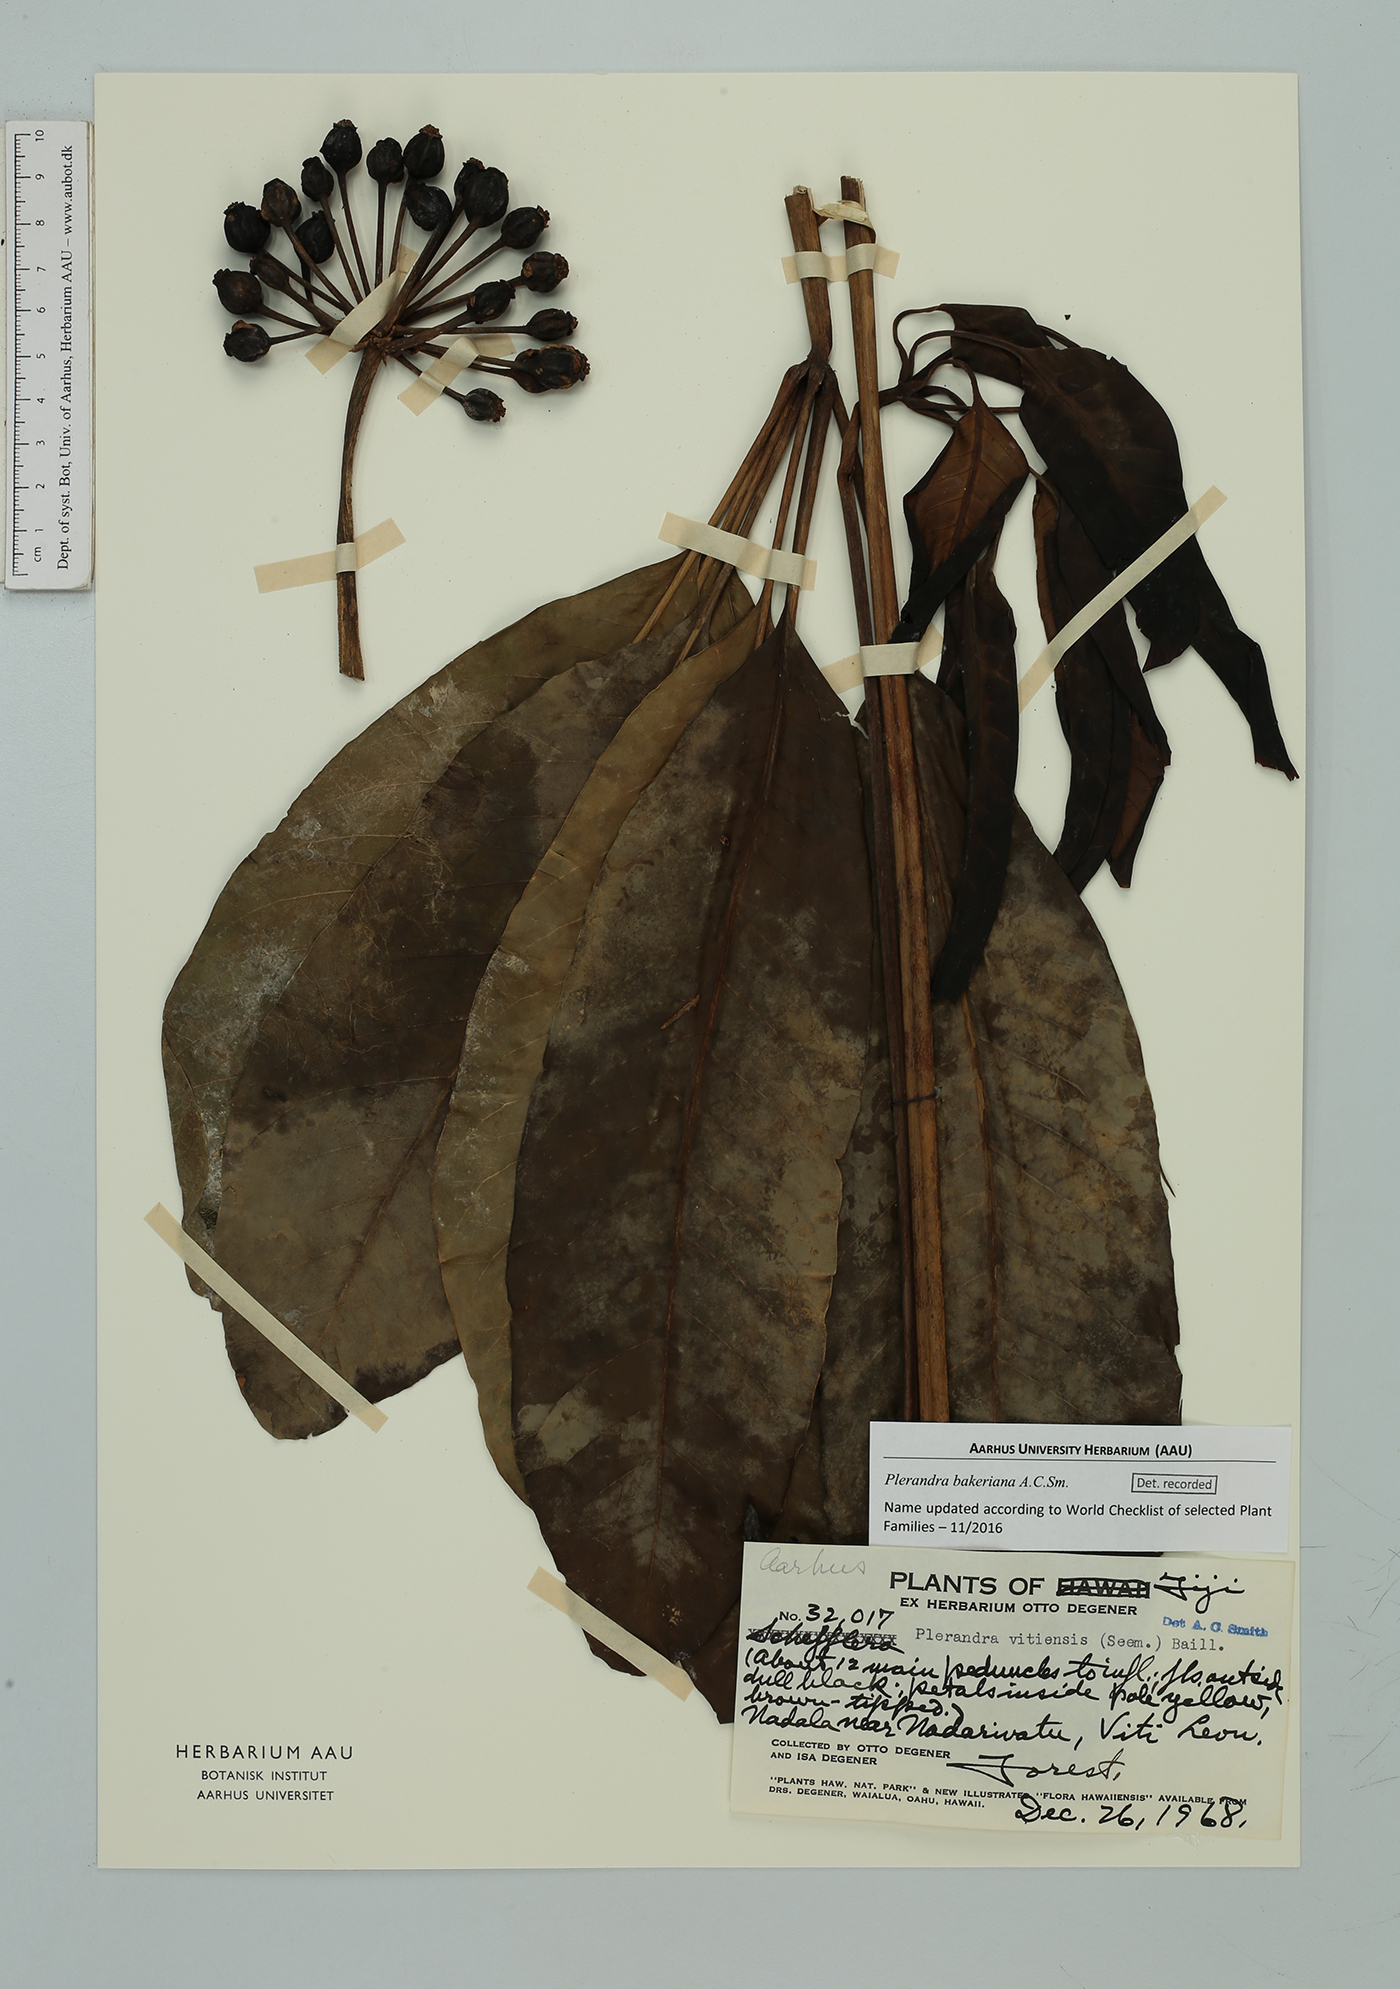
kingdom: Plantae
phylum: Tracheophyta
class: Magnoliopsida
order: Apiales
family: Araliaceae
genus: Plerandra
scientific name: Plerandra bakeriana
